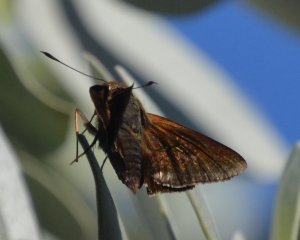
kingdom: Animalia
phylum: Arthropoda
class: Insecta
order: Lepidoptera
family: Hesperiidae
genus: Asbolis
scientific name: Asbolis capucinus
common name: Monk Skipper
